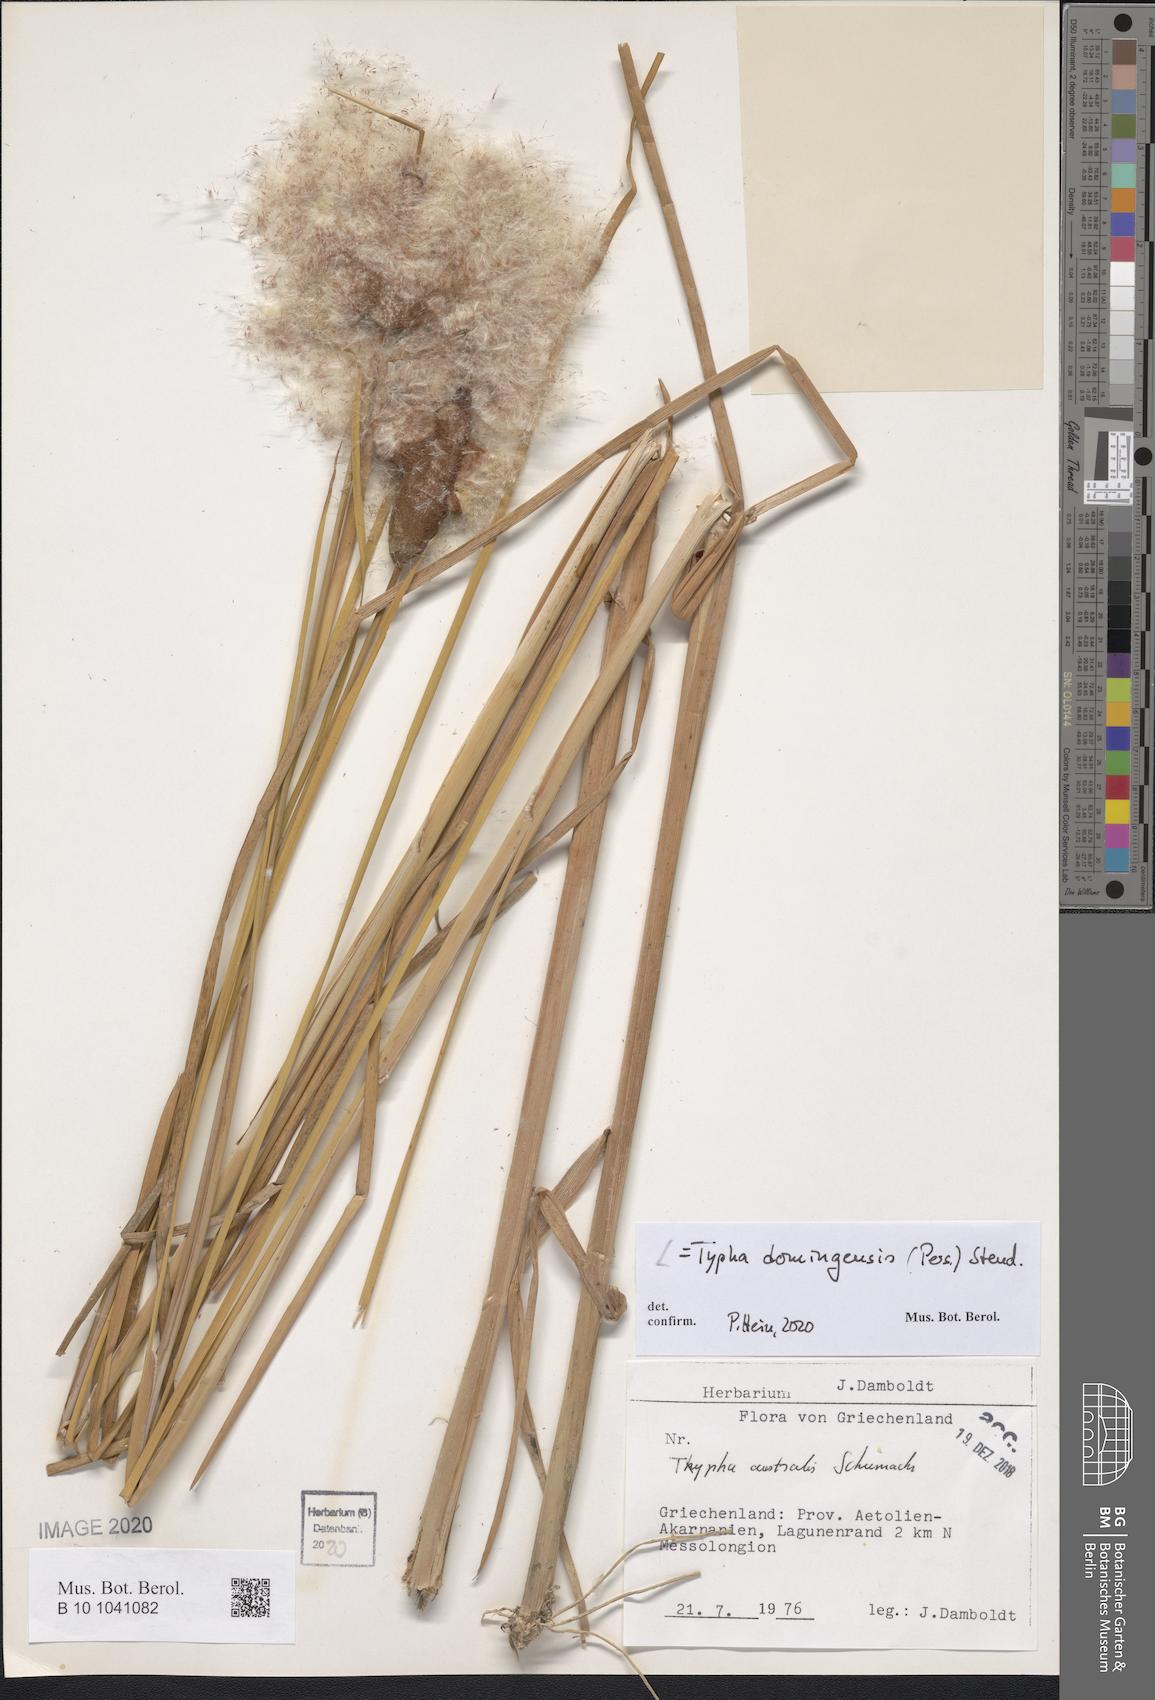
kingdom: Plantae
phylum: Tracheophyta
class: Liliopsida
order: Poales
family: Typhaceae
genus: Typha
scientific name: Typha domingensis
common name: Southern cattail
